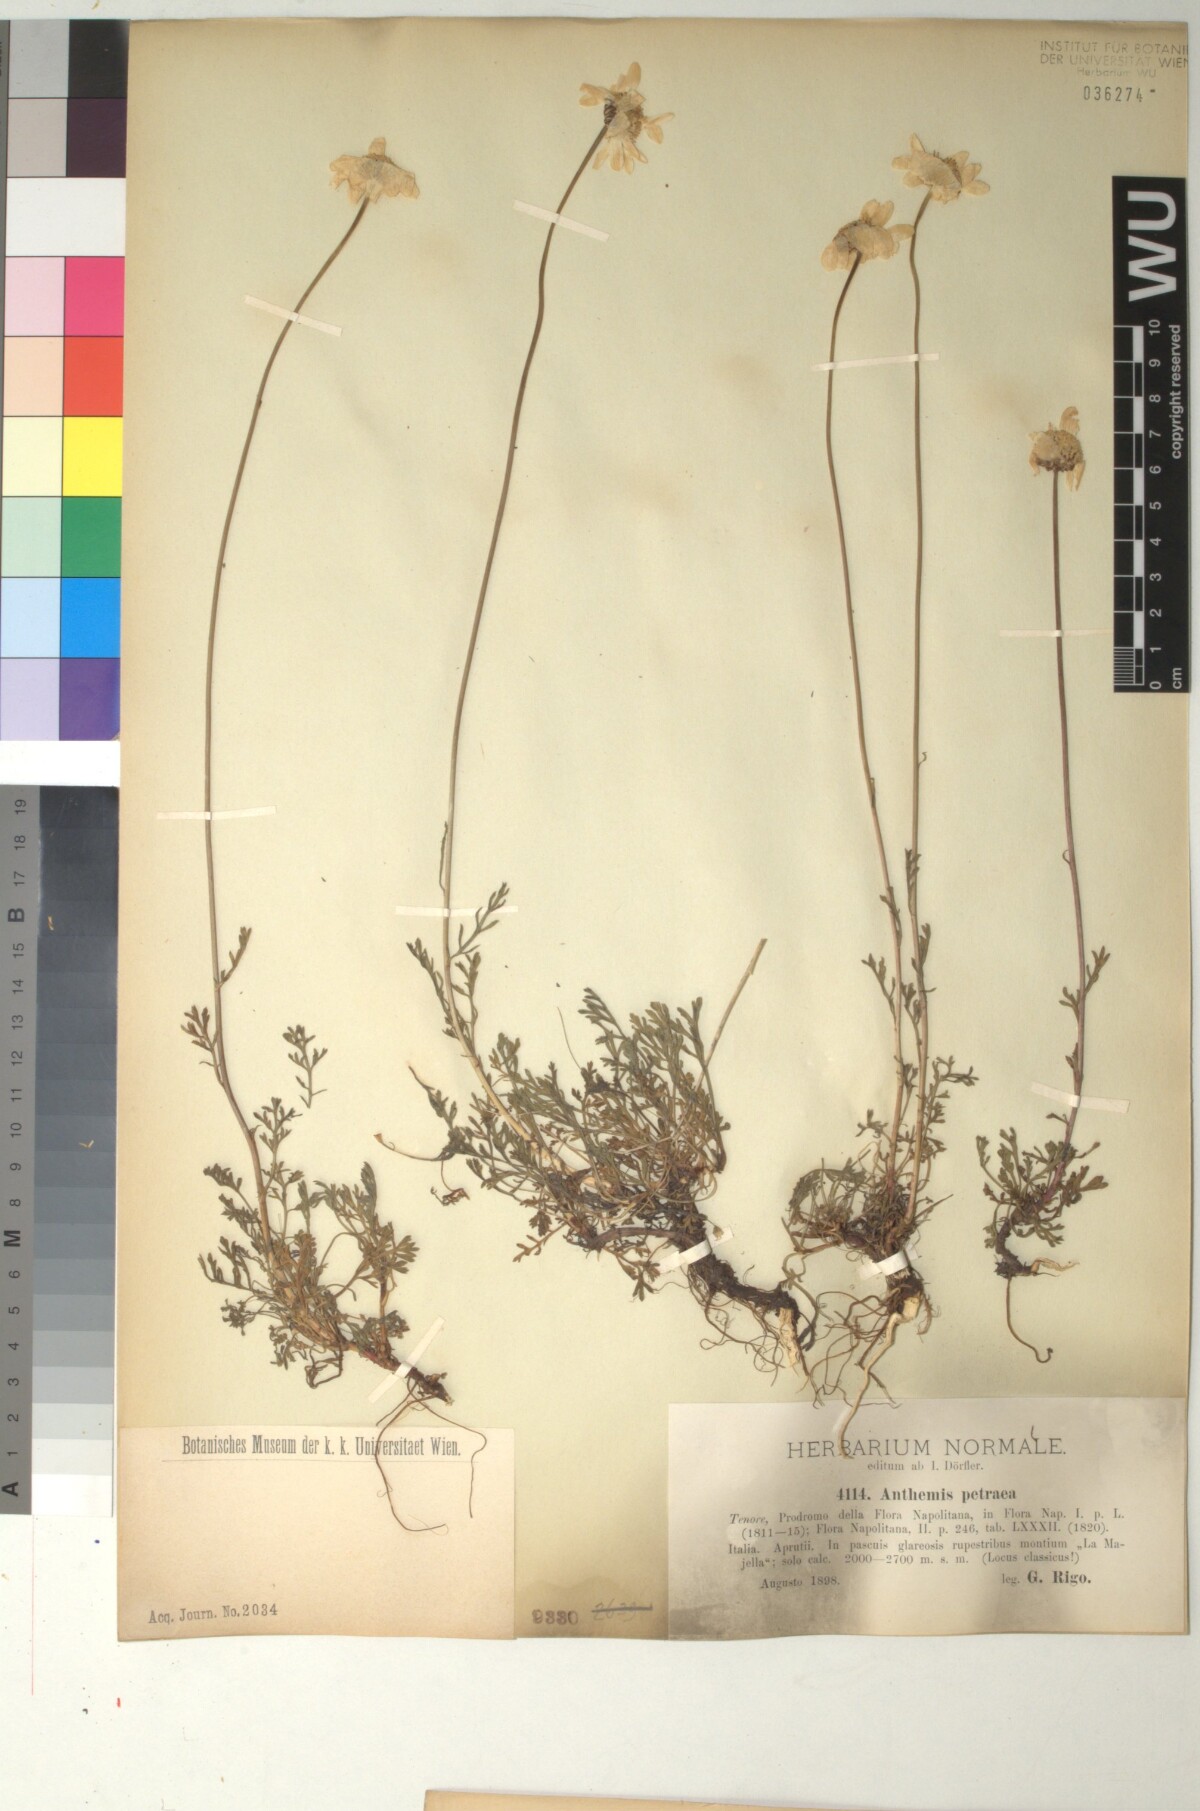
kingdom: Plantae
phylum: Tracheophyta
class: Magnoliopsida
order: Asterales
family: Asteraceae
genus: Anthemis
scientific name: Anthemis cretica
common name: Mountain dog-daisy
